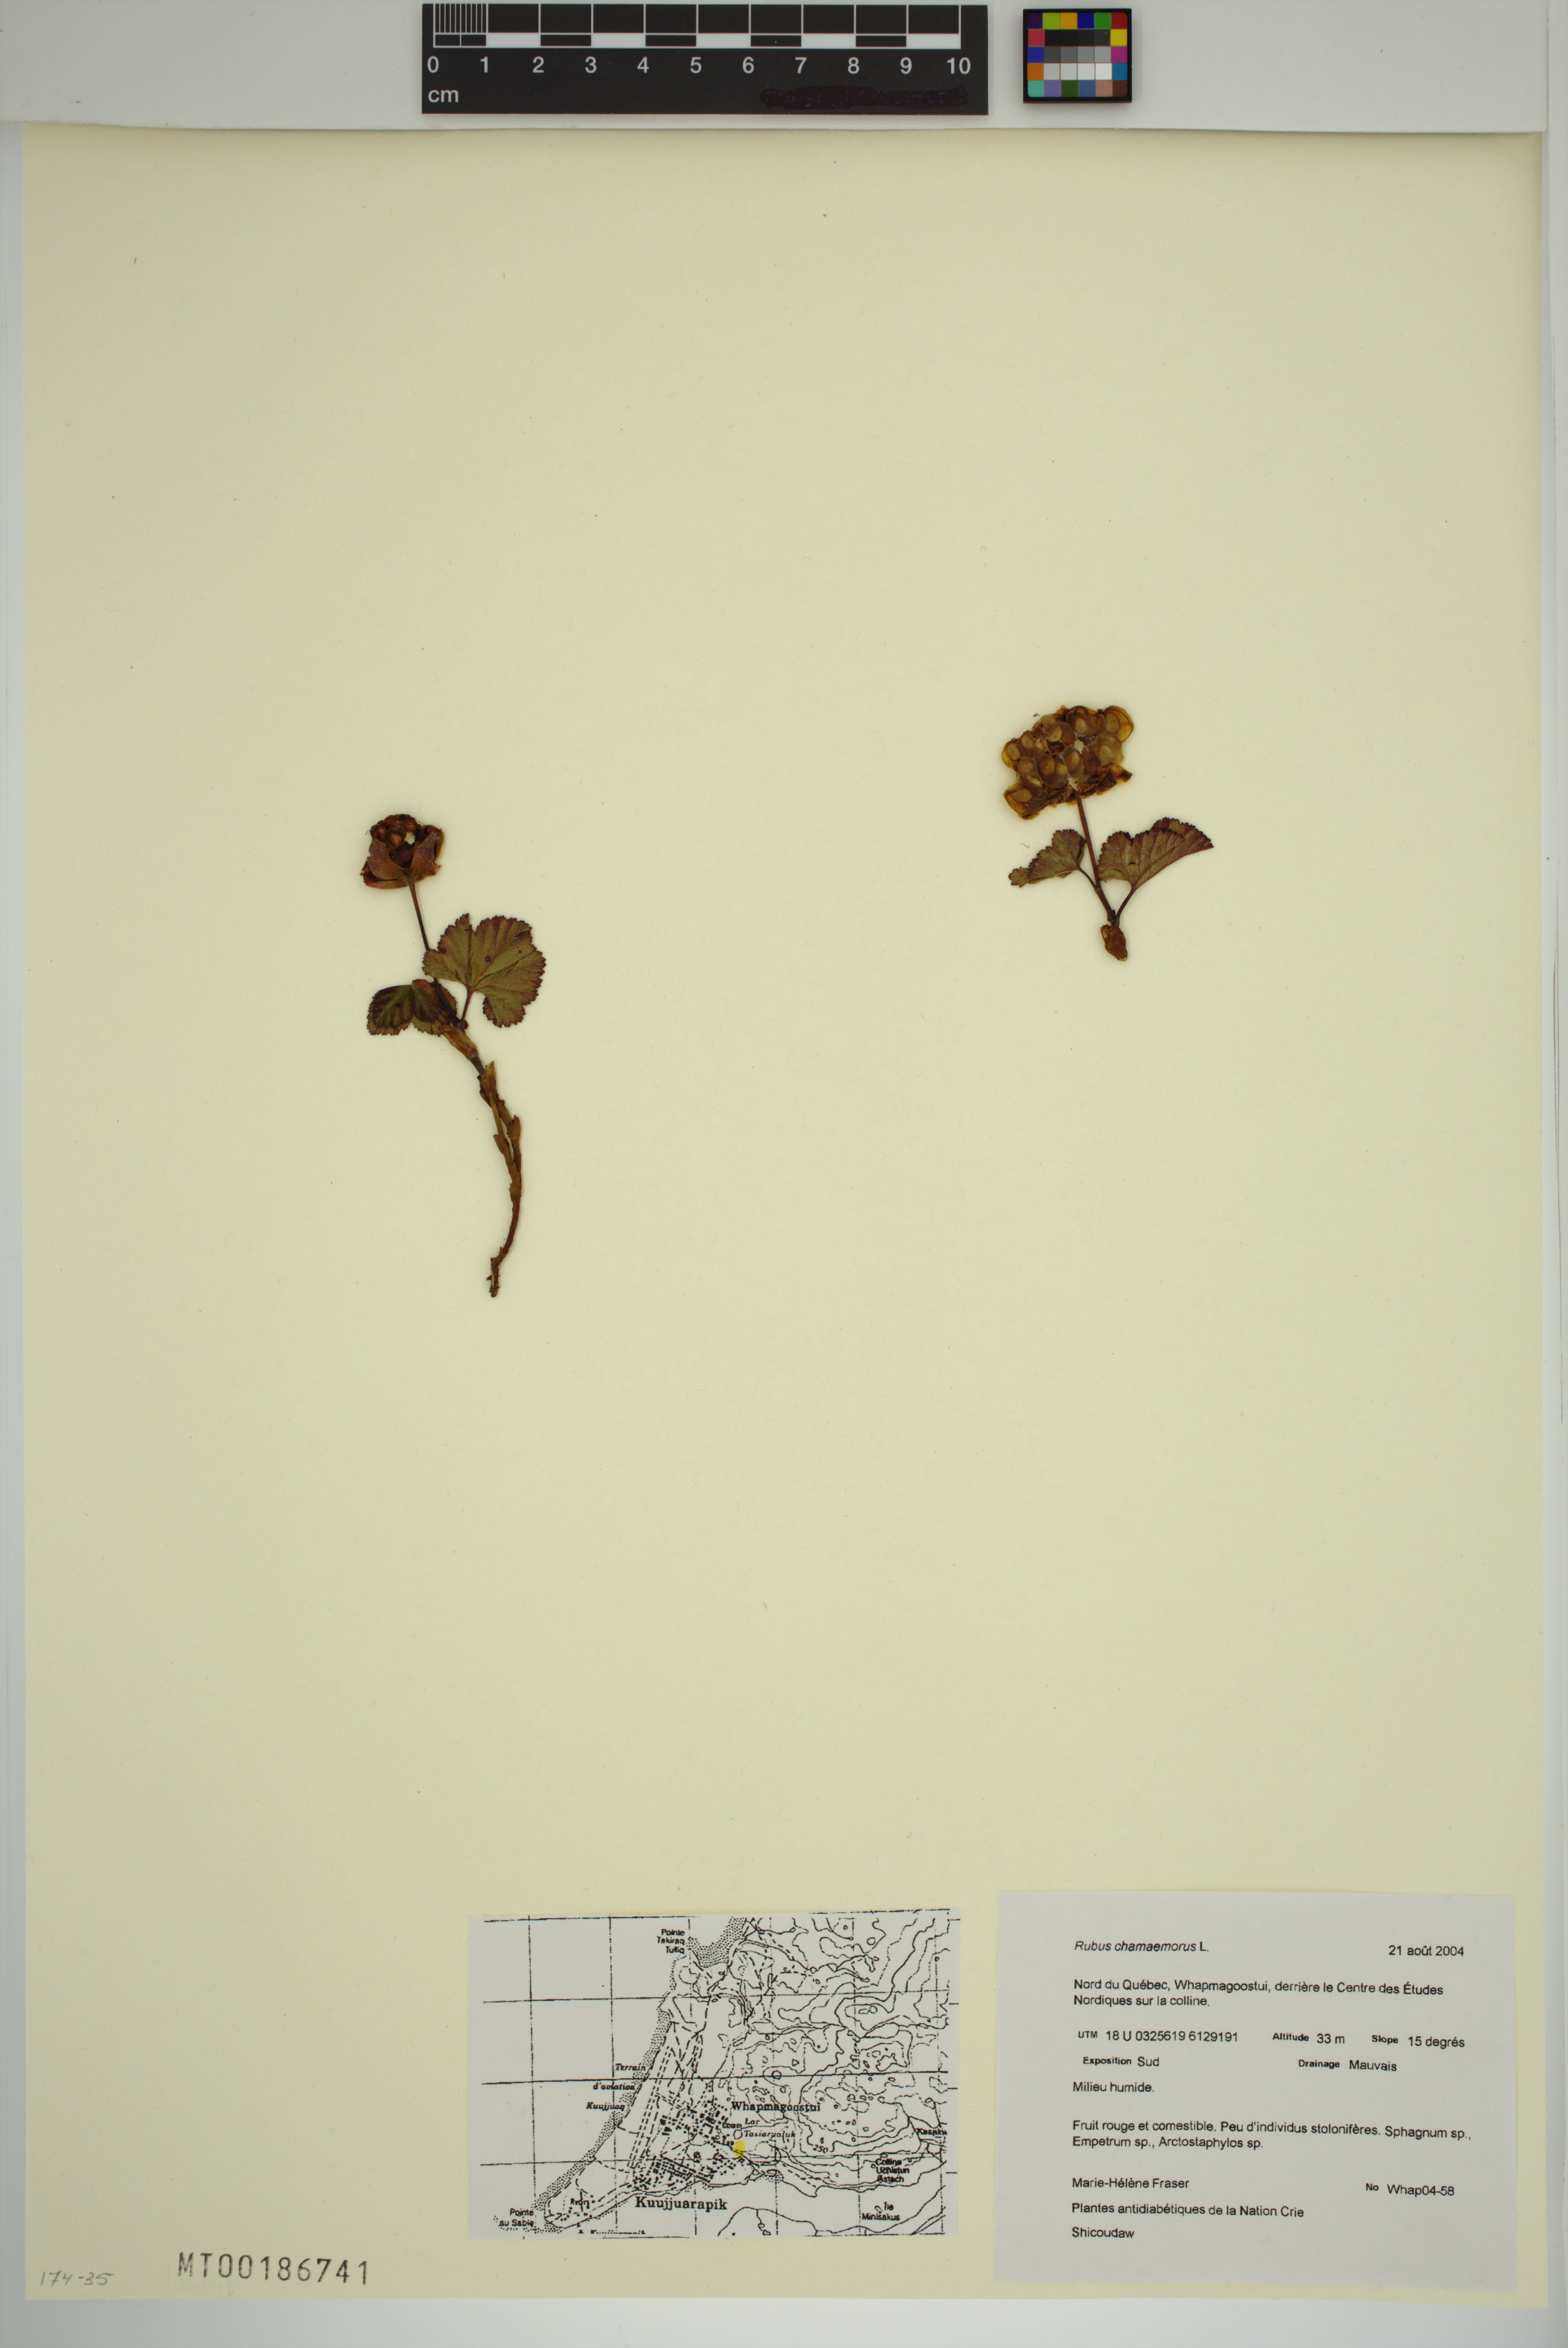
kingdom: Plantae
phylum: Tracheophyta
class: Magnoliopsida
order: Rosales
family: Rosaceae
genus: Rubus
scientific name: Rubus chamaemorus
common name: Cloudberry
